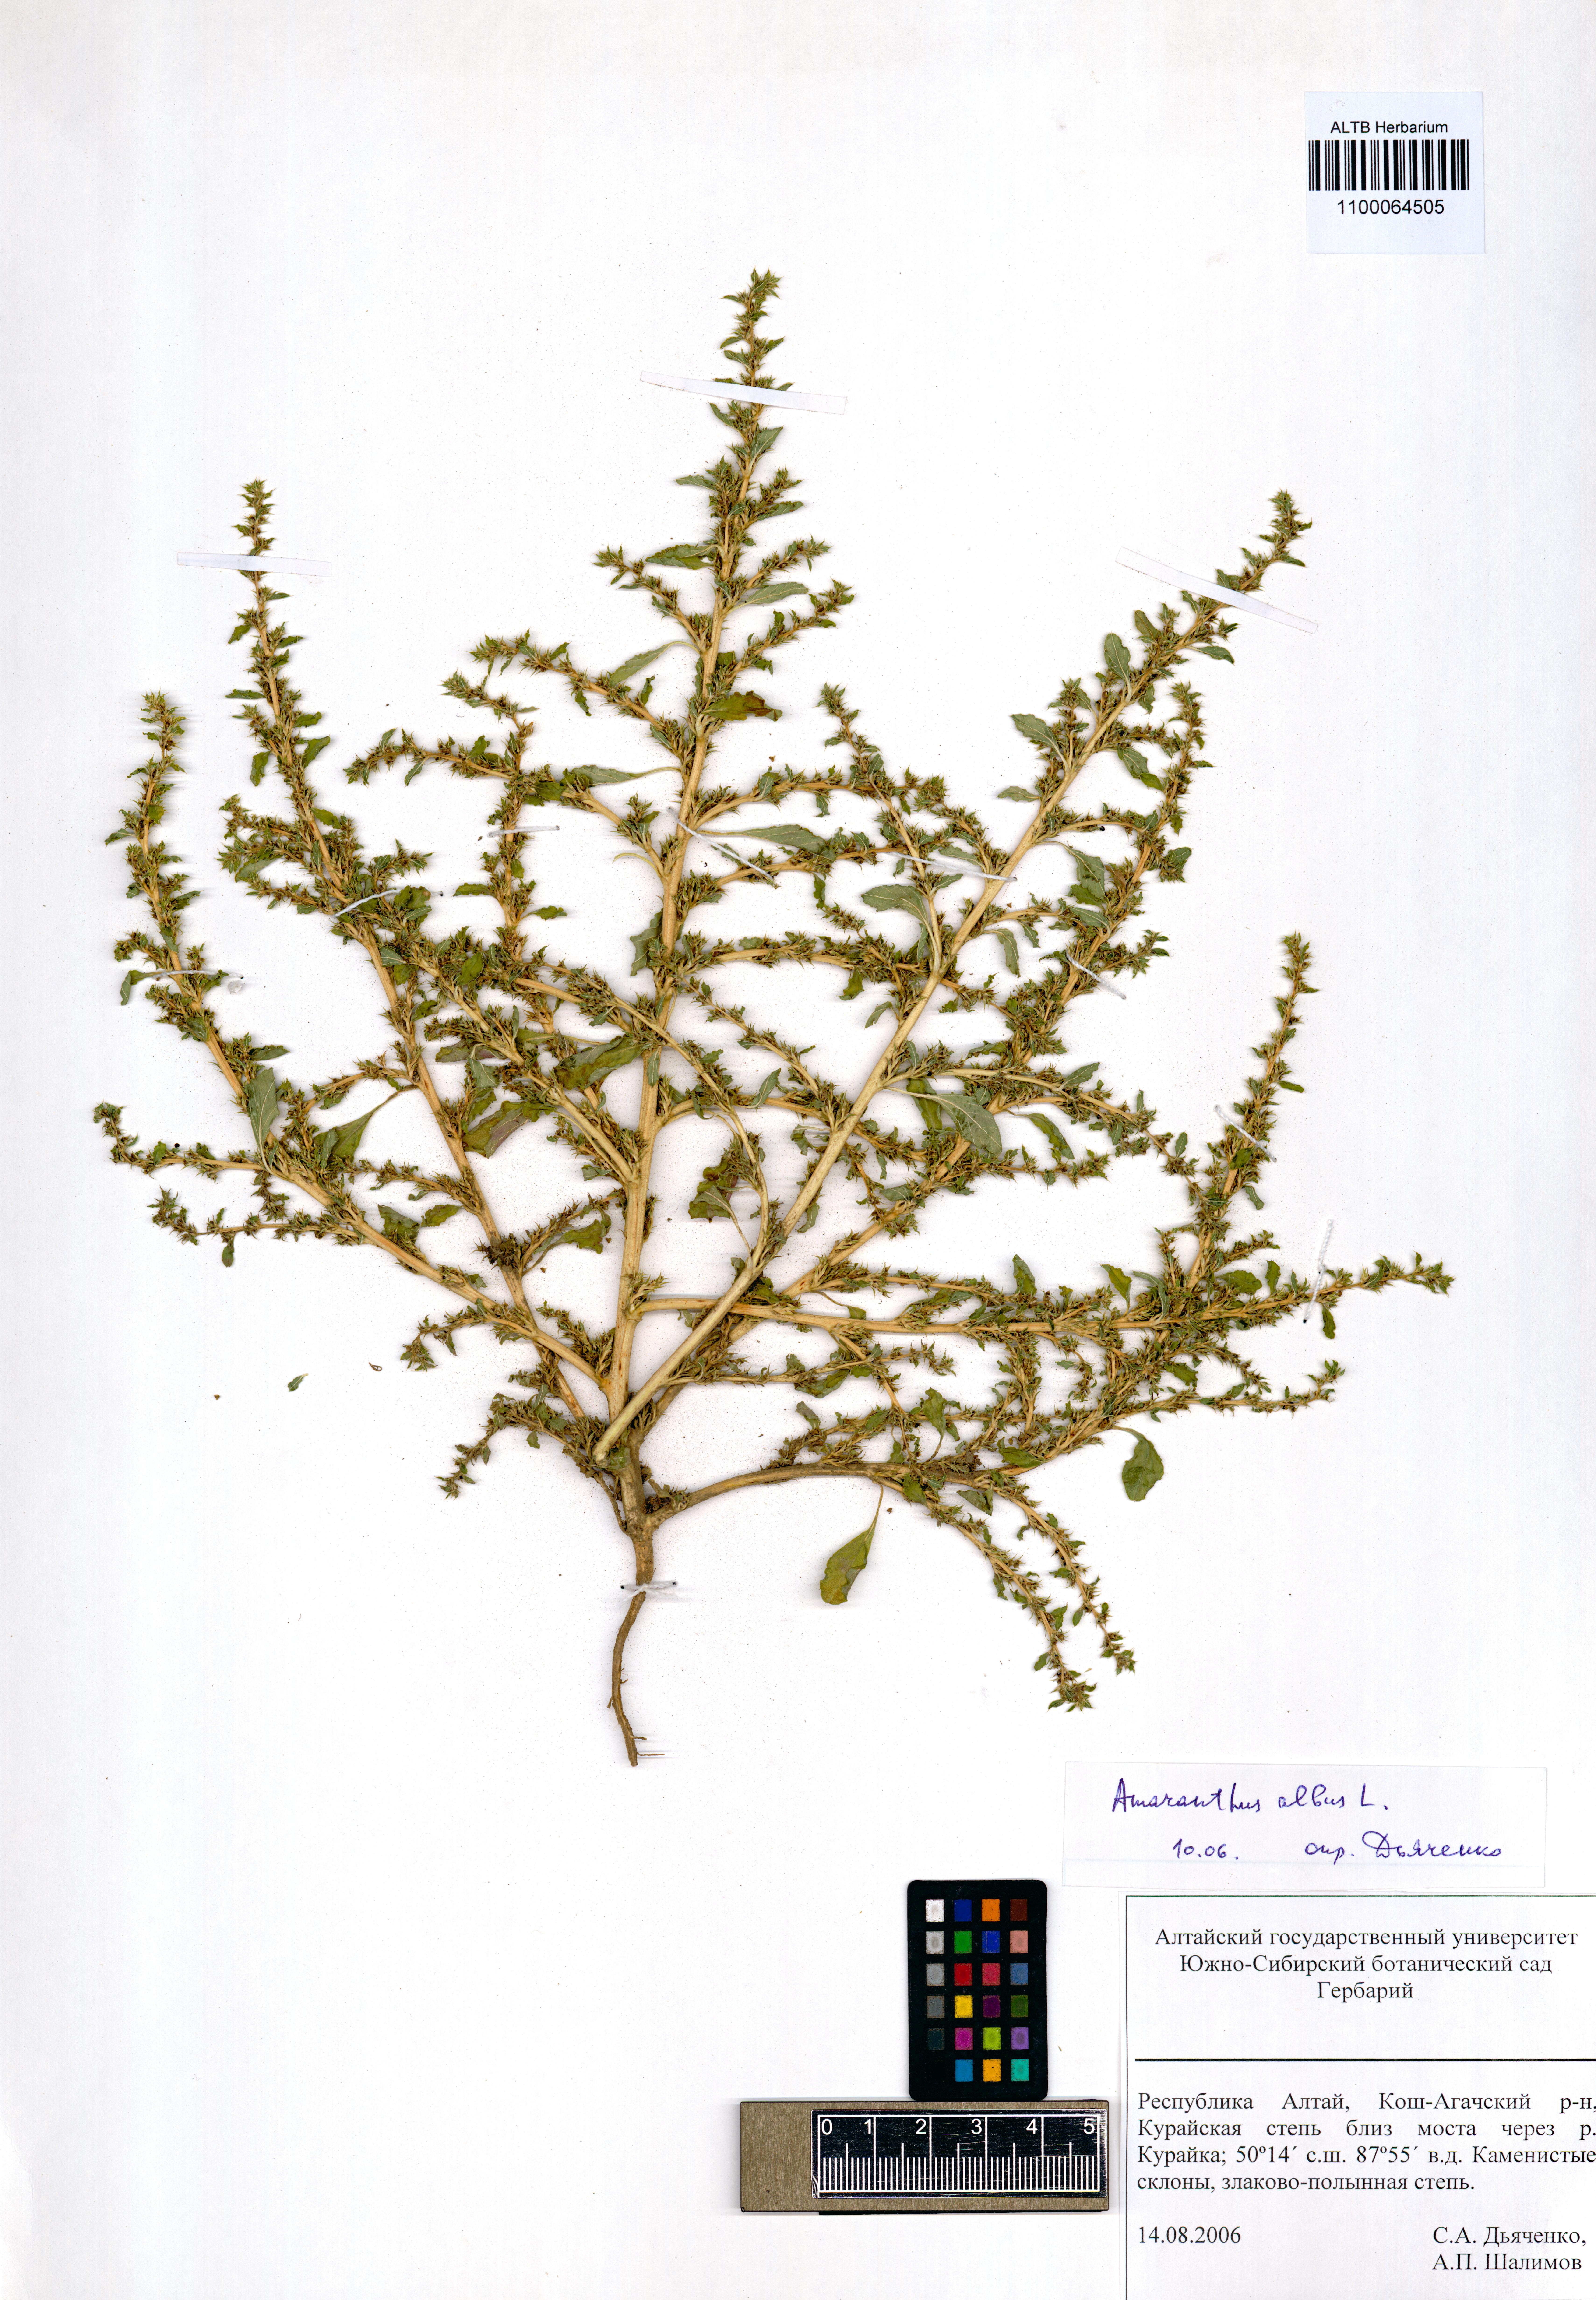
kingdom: Plantae
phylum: Tracheophyta
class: Magnoliopsida
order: Caryophyllales
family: Amaranthaceae
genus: Amaranthus
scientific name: Amaranthus albus
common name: White pigweed
